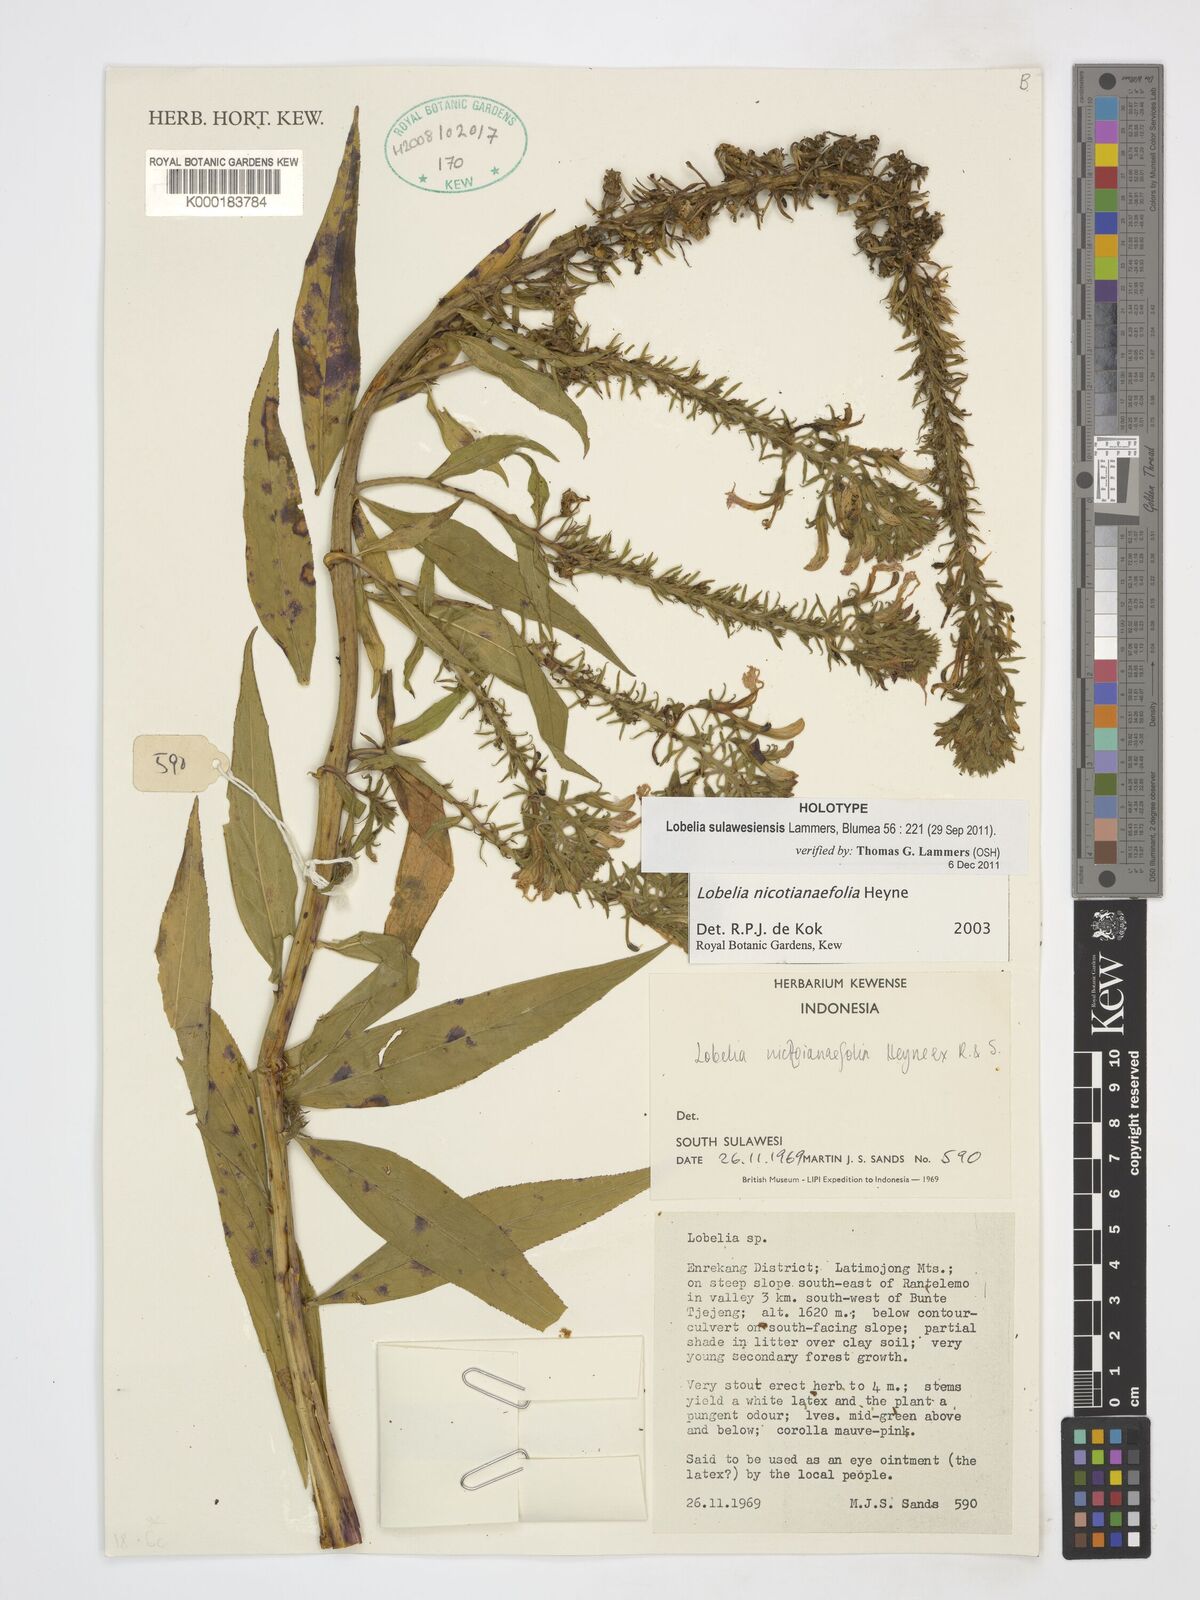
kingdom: Plantae
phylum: Tracheophyta
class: Magnoliopsida
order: Asterales
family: Campanulaceae
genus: Lobelia
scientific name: Lobelia sulawesiensis
